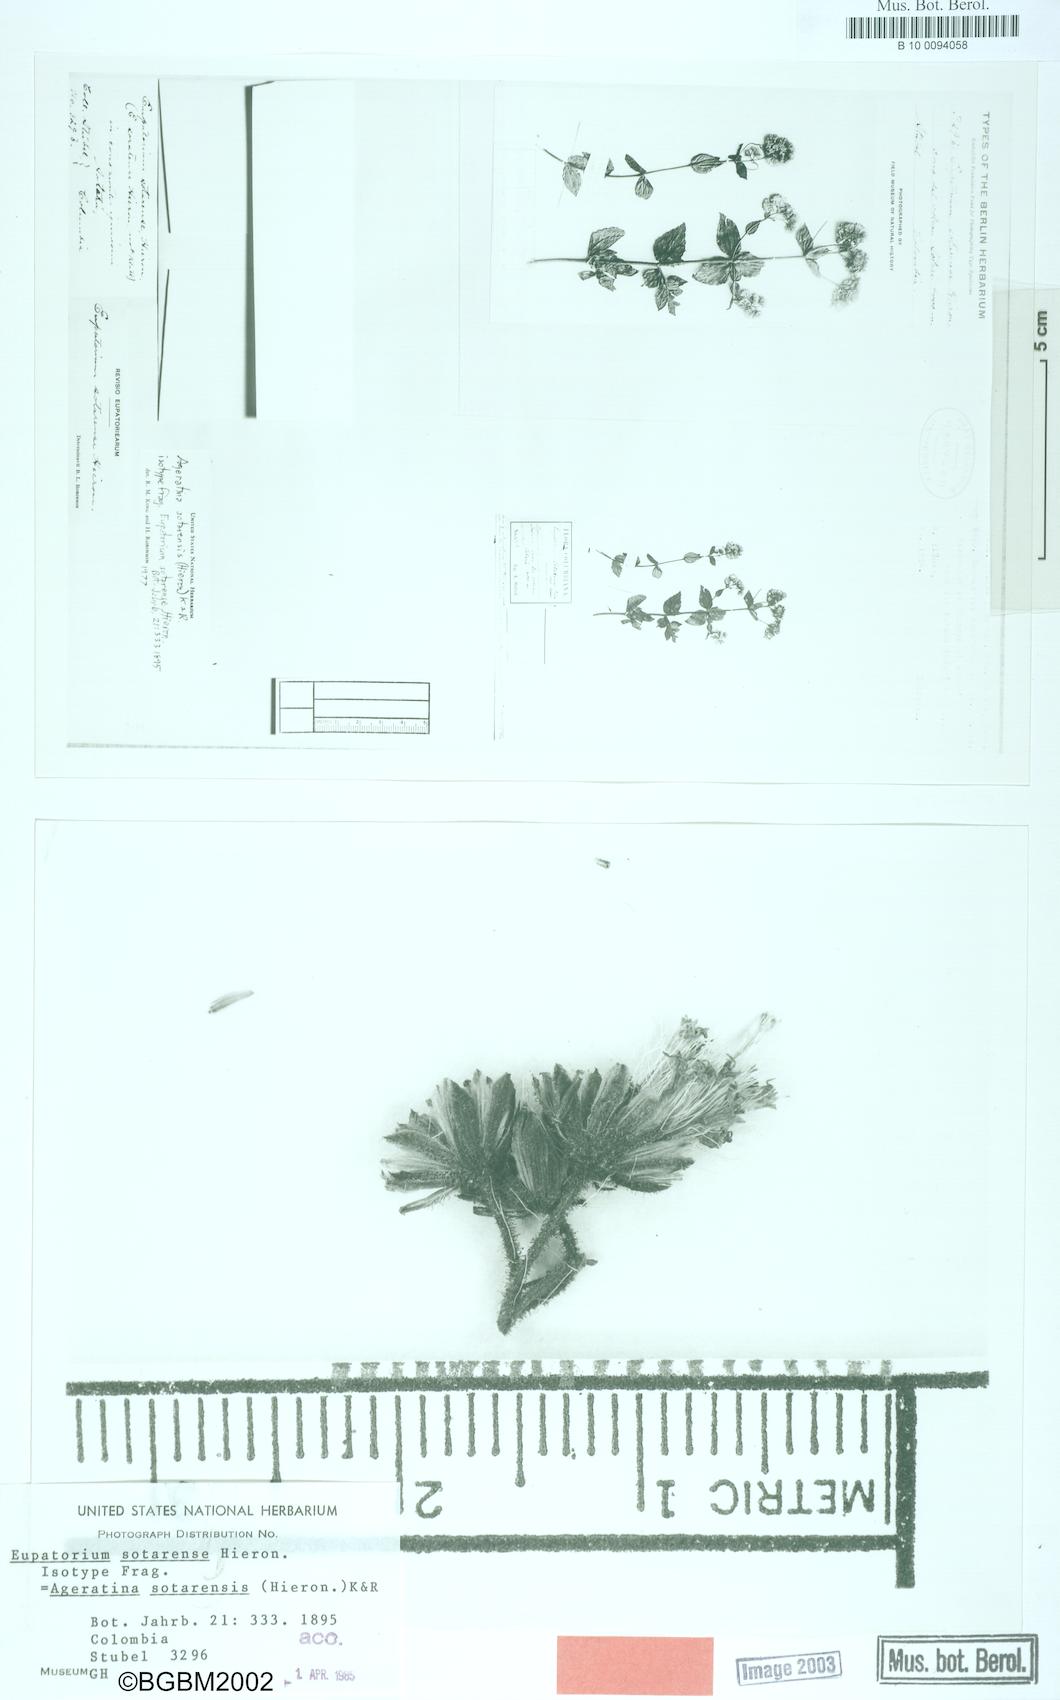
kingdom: Plantae
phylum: Tracheophyta
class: Magnoliopsida
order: Asterales
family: Asteraceae
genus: Ageratina
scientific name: Ageratina sotarensis
